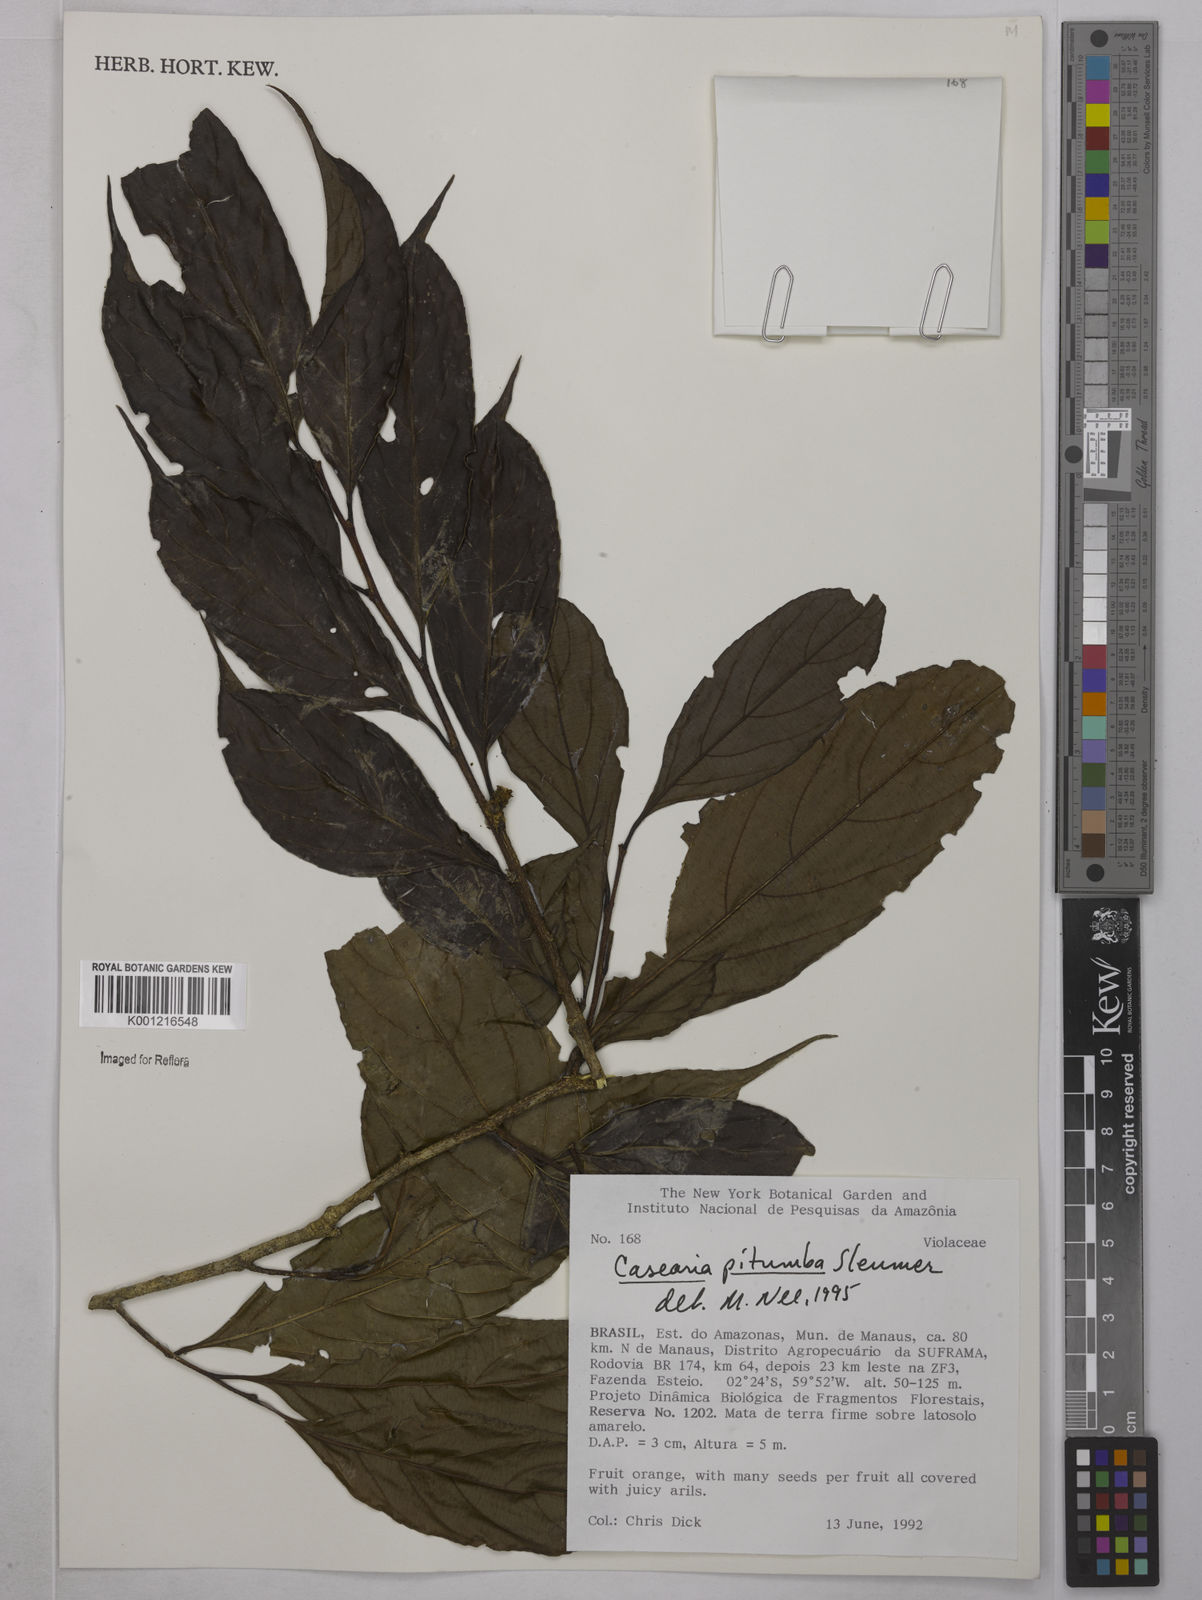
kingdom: Plantae
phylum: Tracheophyta
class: Magnoliopsida
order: Malpighiales
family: Salicaceae
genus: Casearia
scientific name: Casearia pitumba
